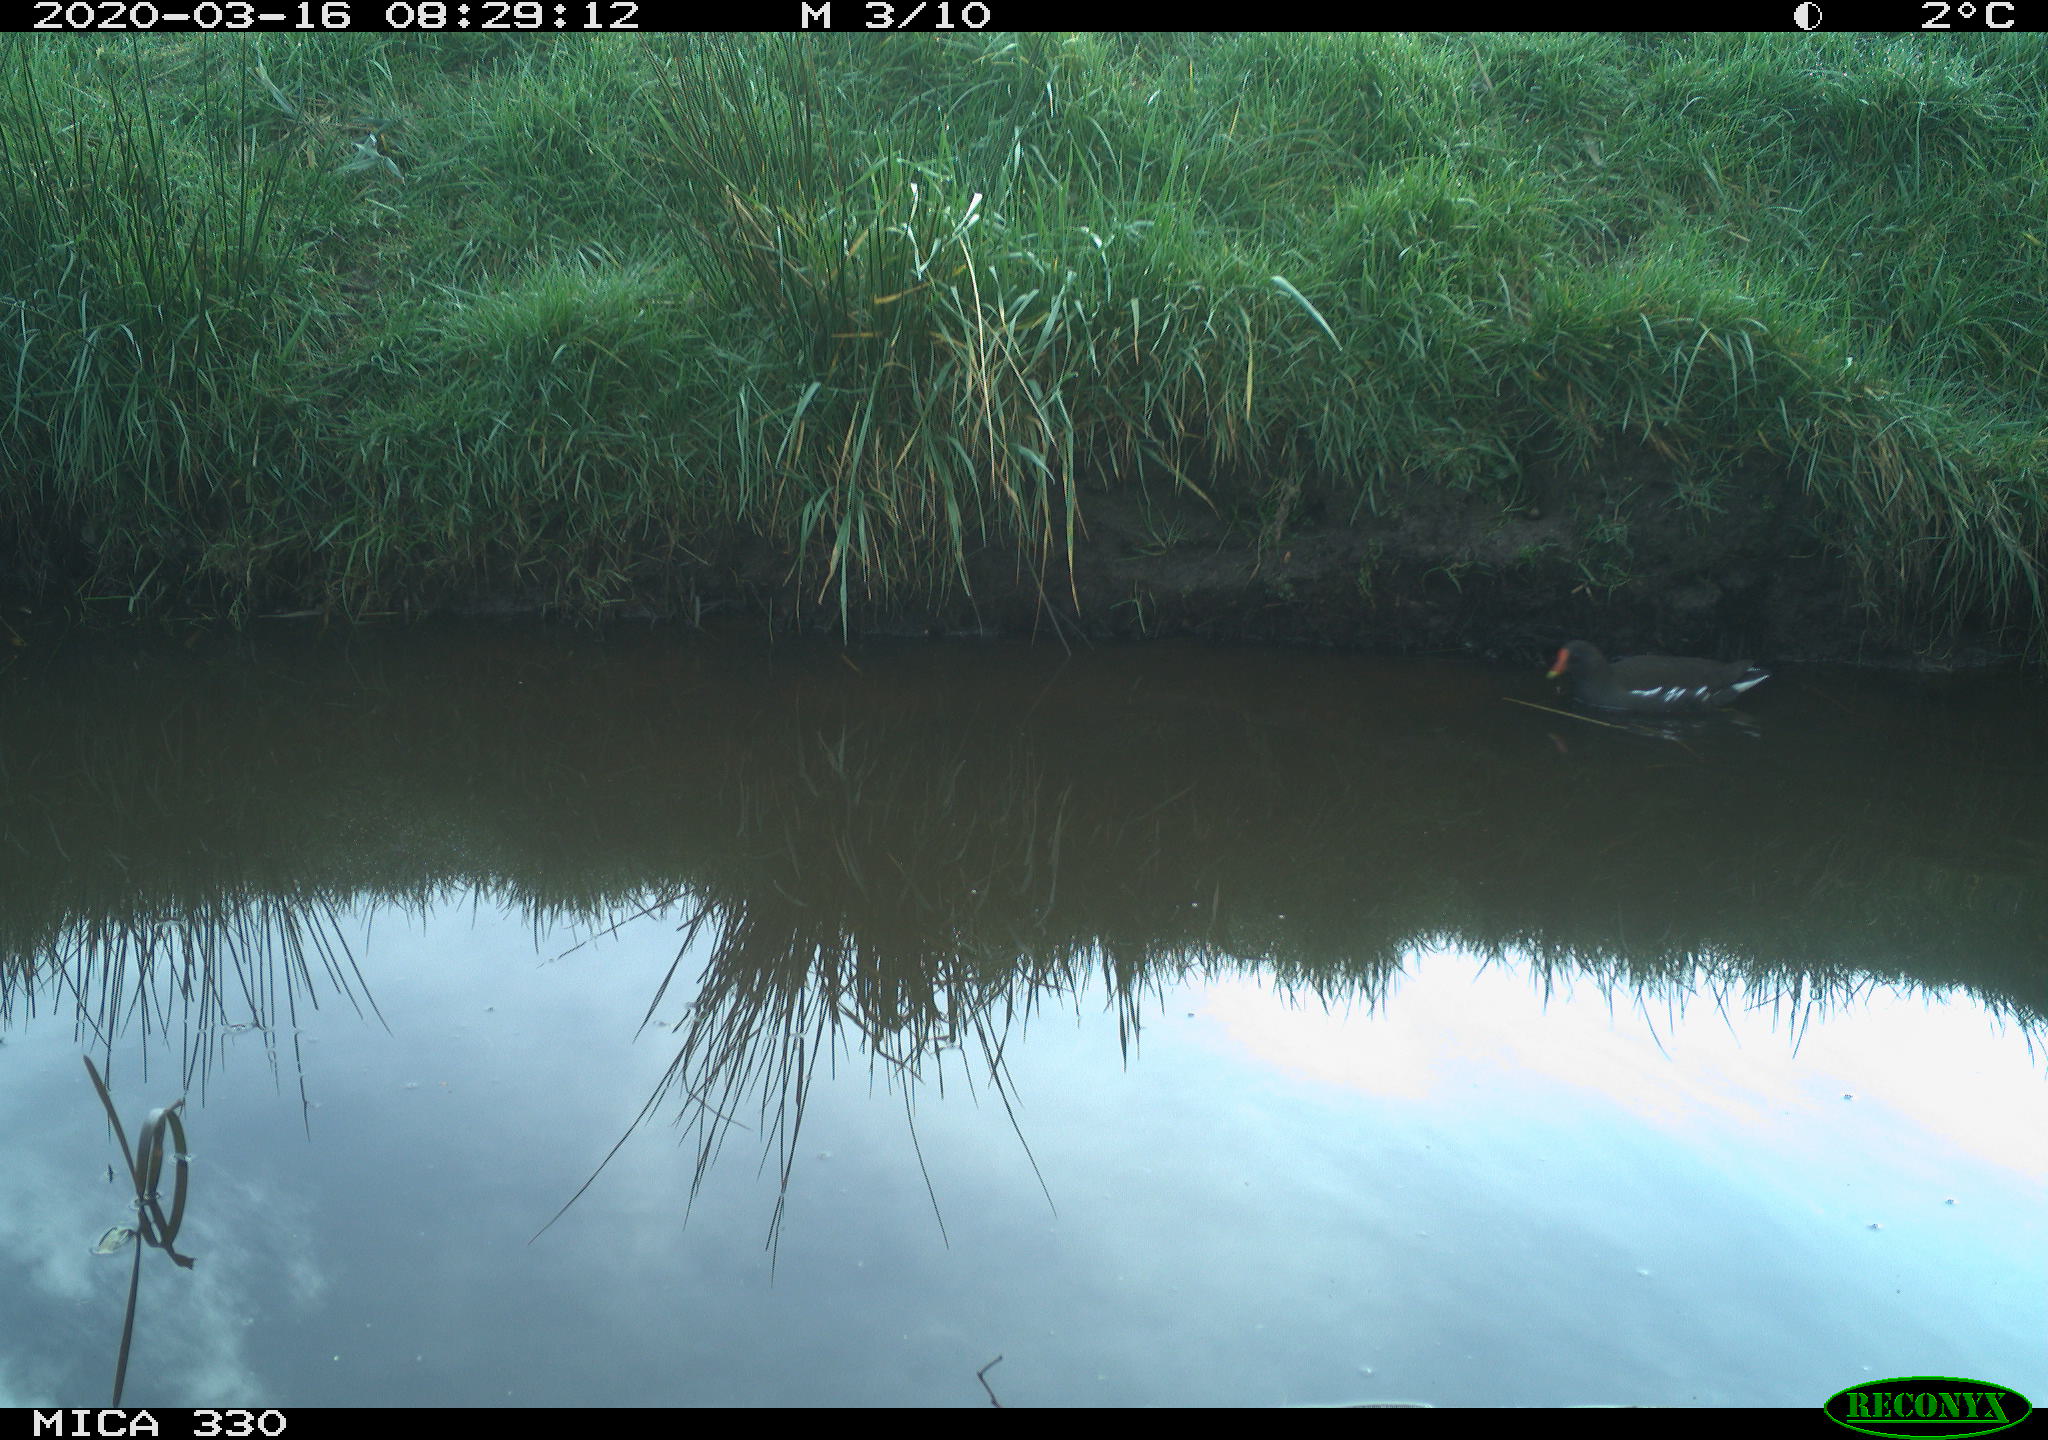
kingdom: Animalia
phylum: Chordata
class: Aves
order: Gruiformes
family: Rallidae
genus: Gallinula
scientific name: Gallinula chloropus
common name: Common moorhen
